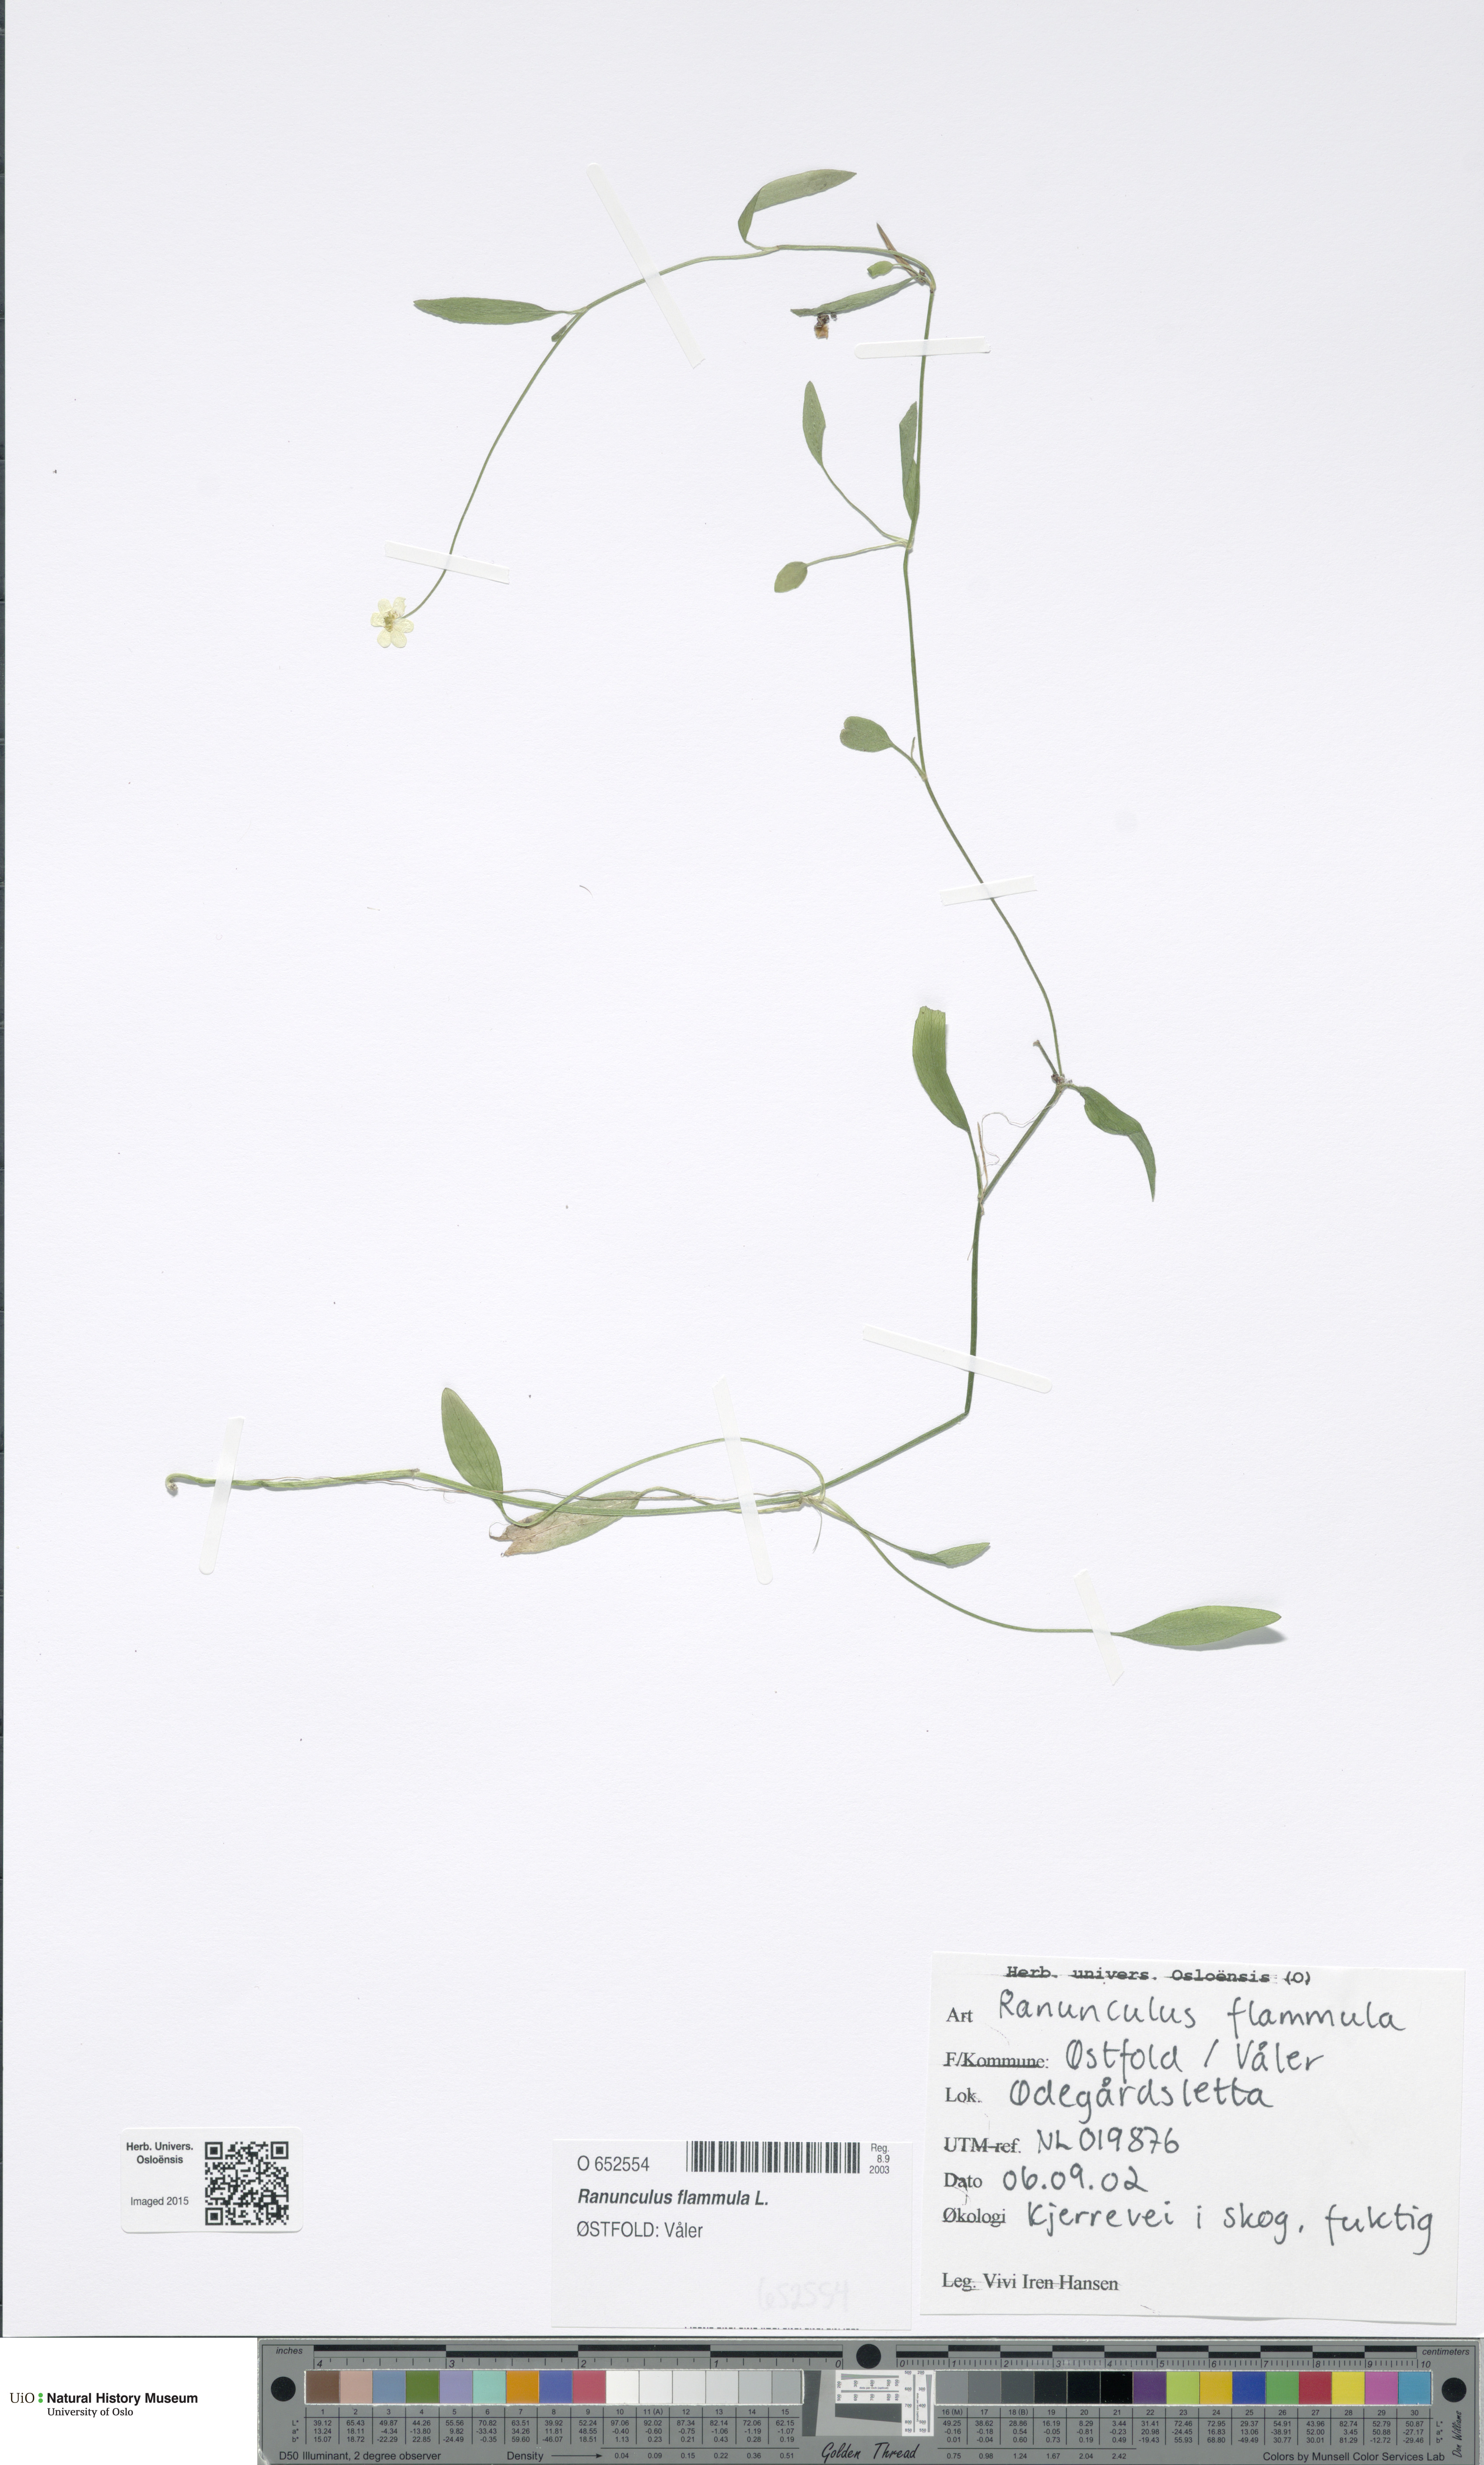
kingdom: Plantae
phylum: Tracheophyta
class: Magnoliopsida
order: Ranunculales
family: Ranunculaceae
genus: Ranunculus
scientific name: Ranunculus flammula
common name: Lesser spearwort
